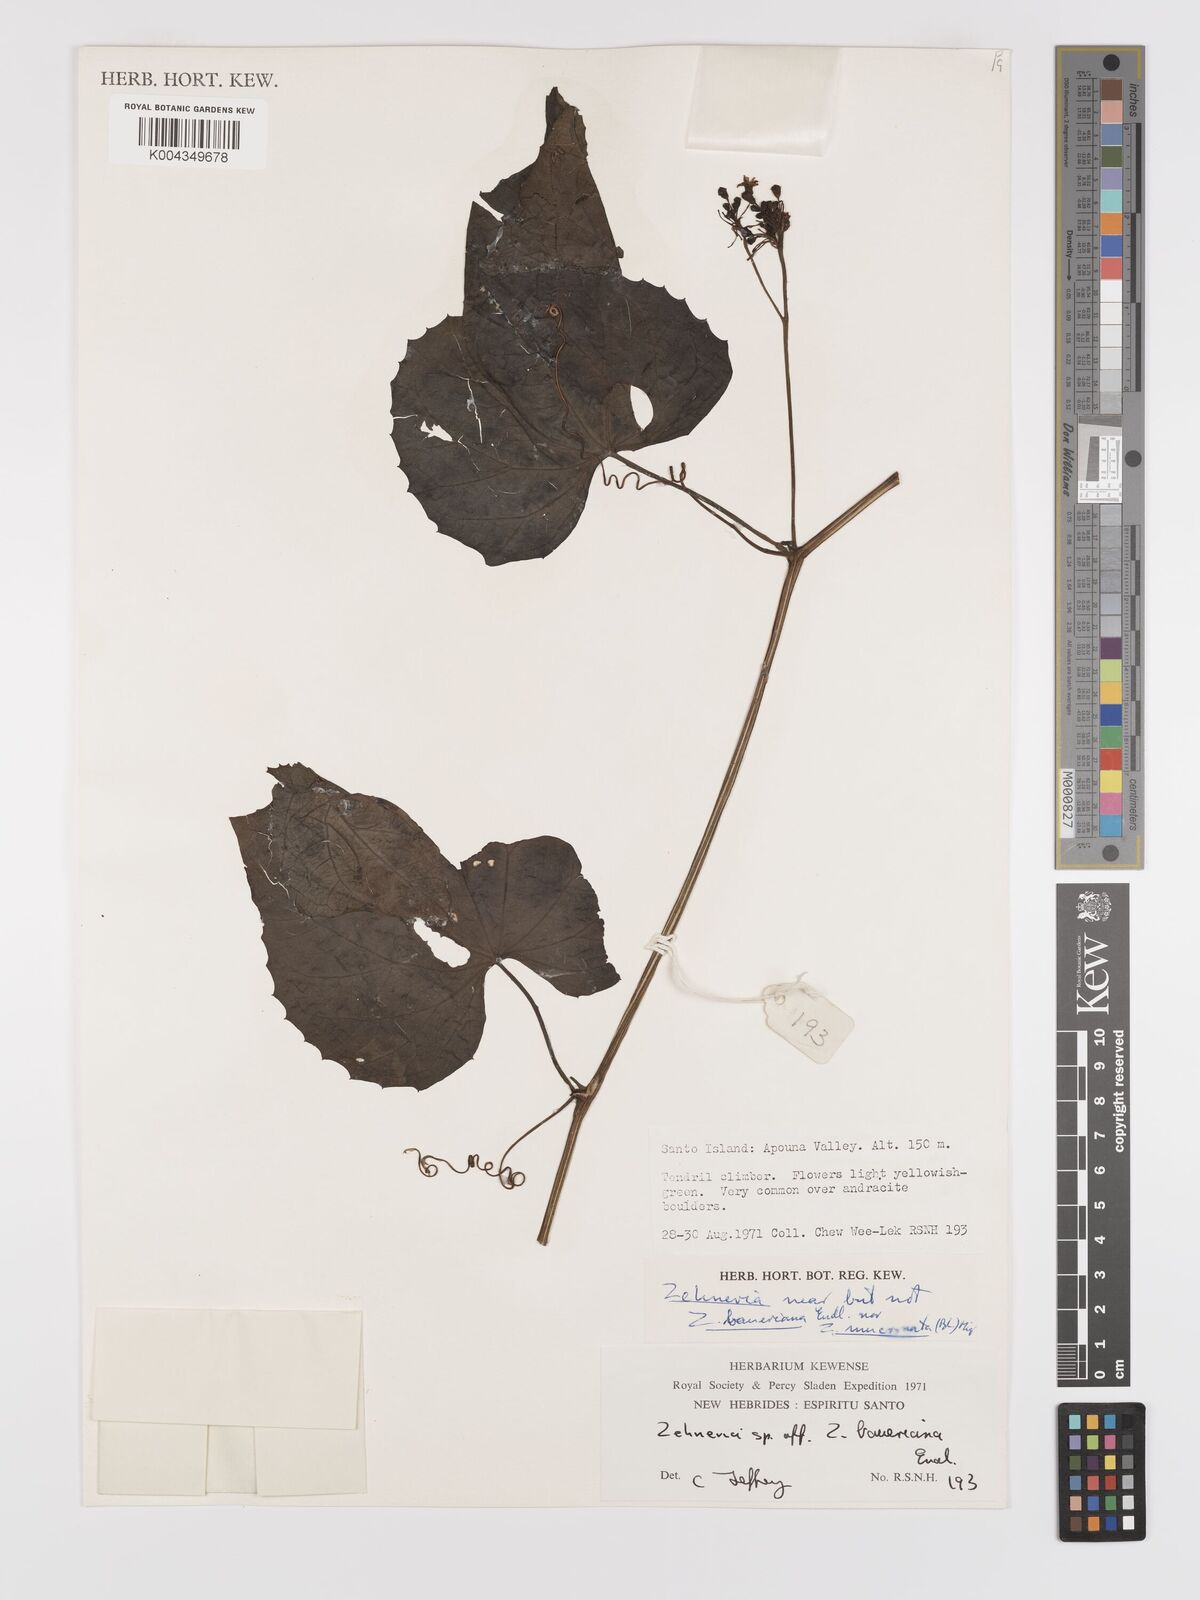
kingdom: Plantae
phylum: Tracheophyta
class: Magnoliopsida
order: Cucurbitales
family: Cucurbitaceae
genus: Zehneria
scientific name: Zehneria mucronata
